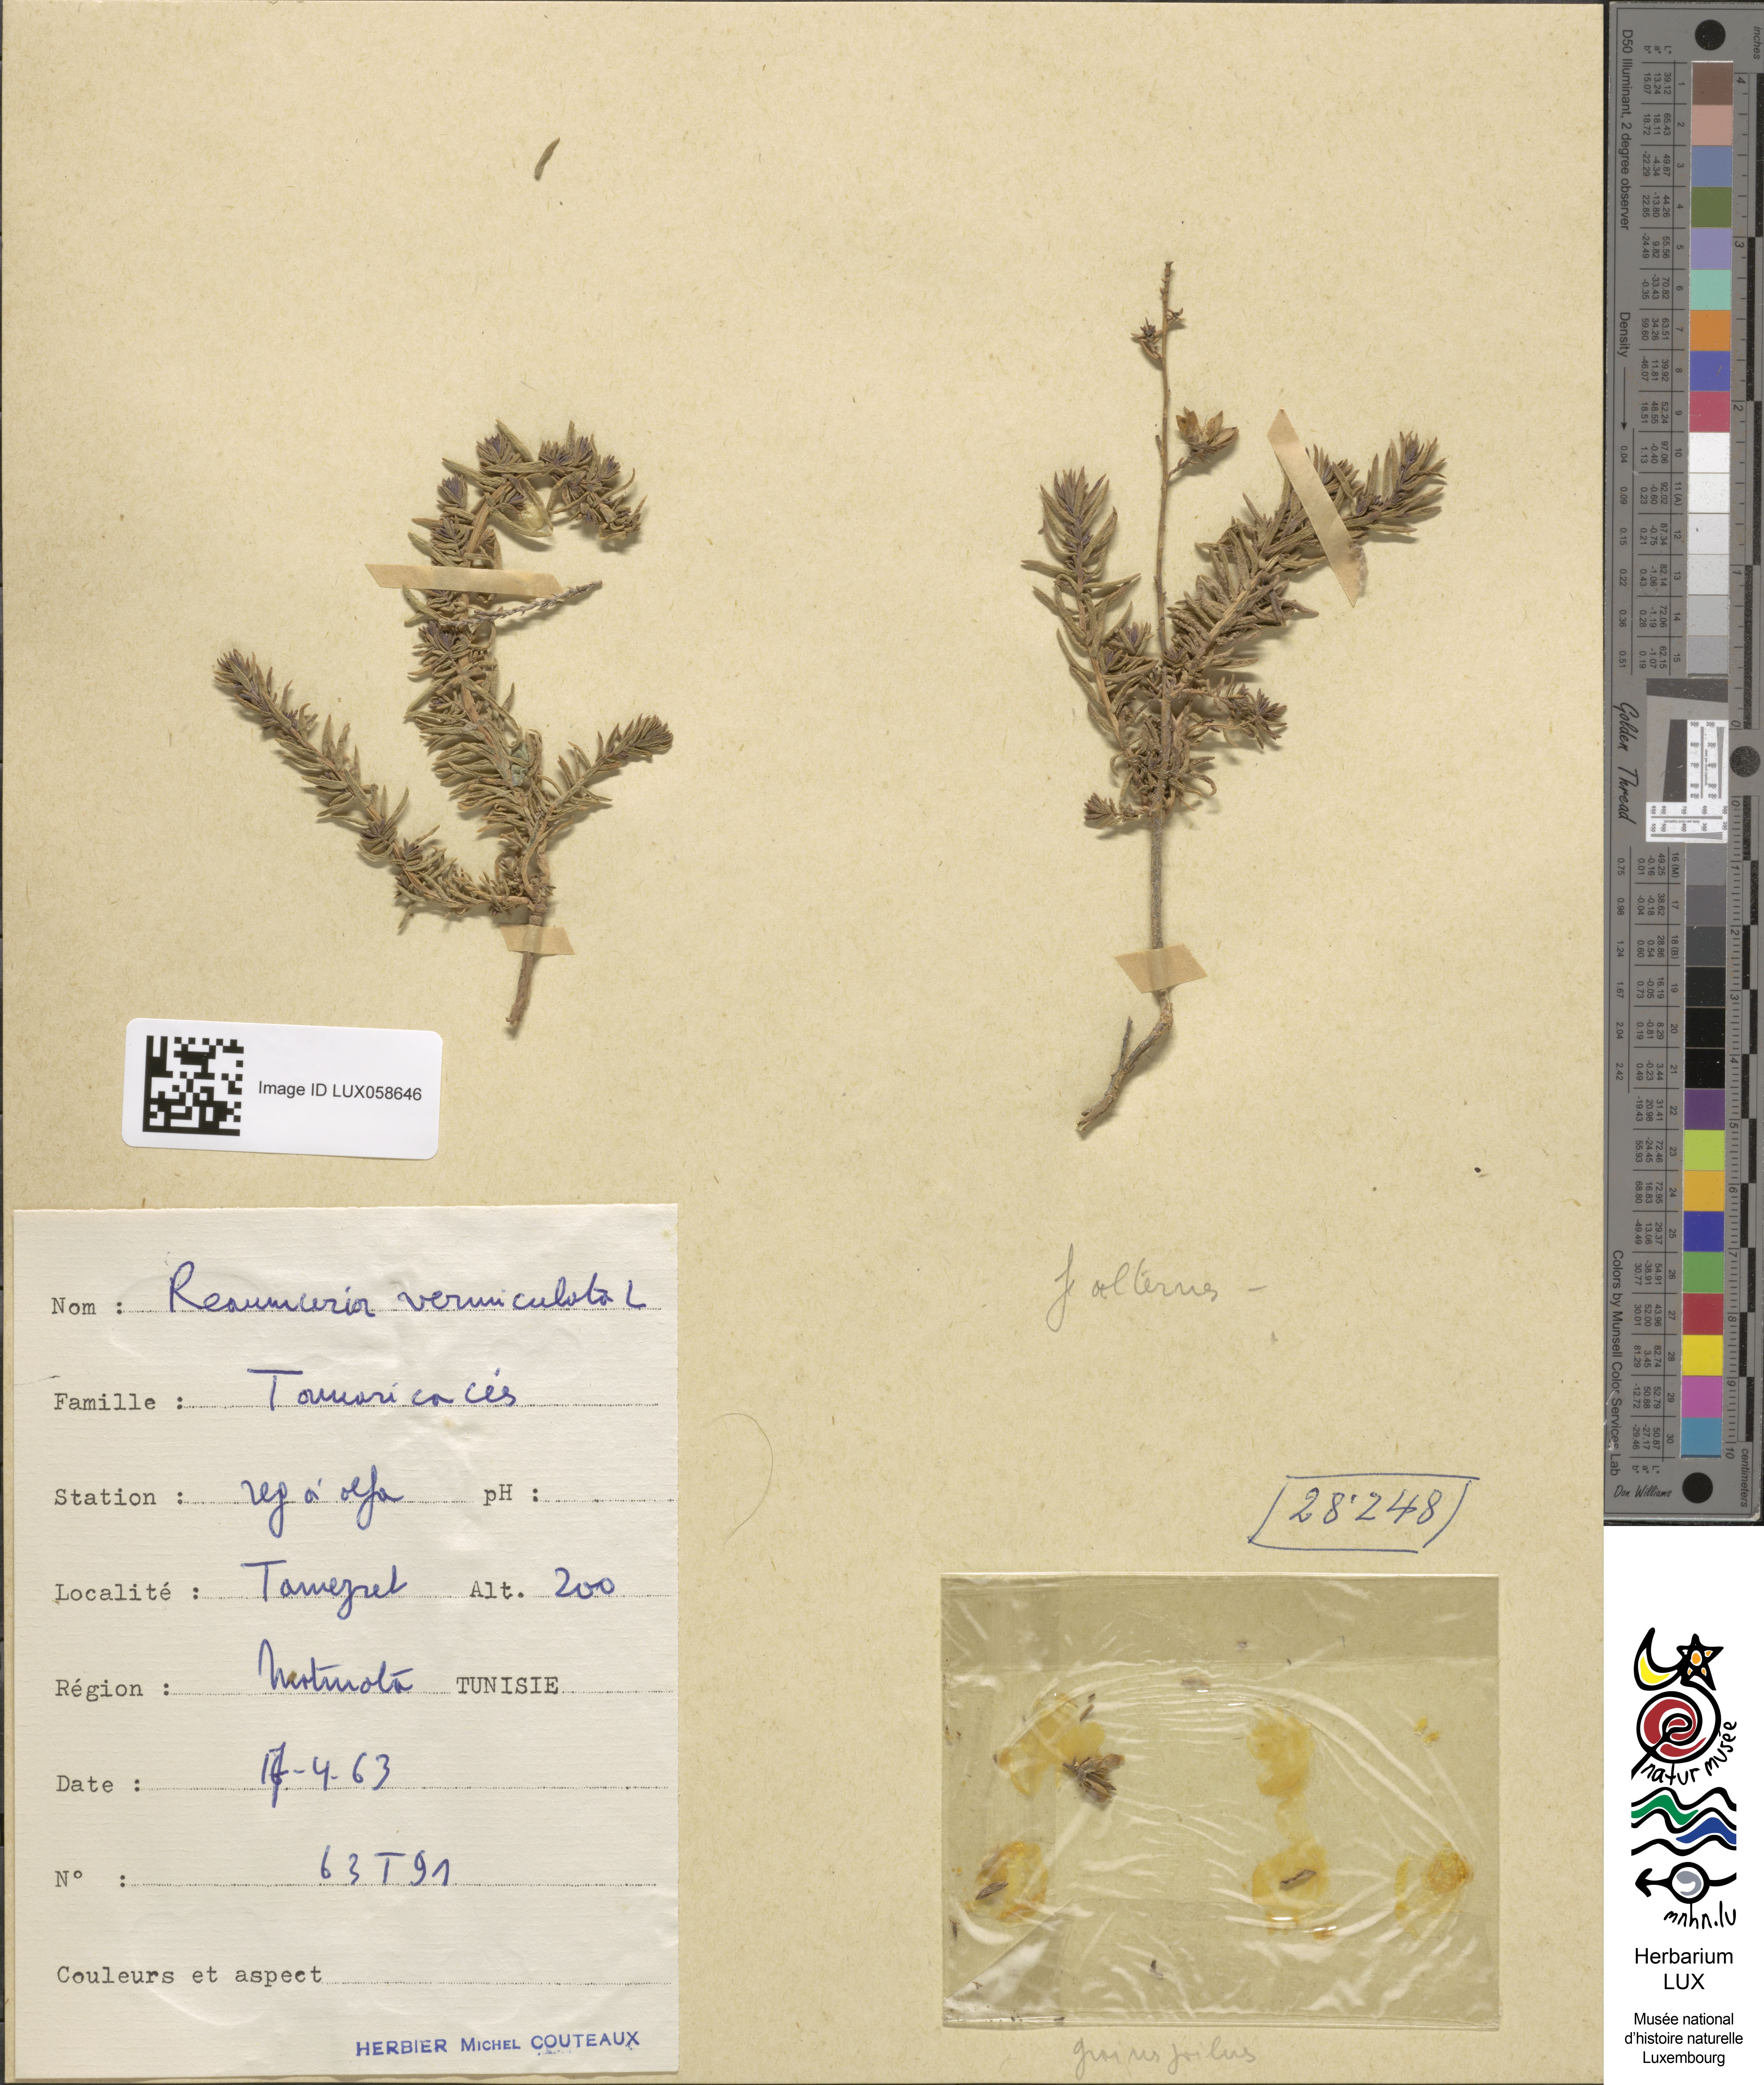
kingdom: Plantae
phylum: Tracheophyta
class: Magnoliopsida
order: Caryophyllales
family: Tamaricaceae
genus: Reaumuria
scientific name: Reaumuria vermiculata
